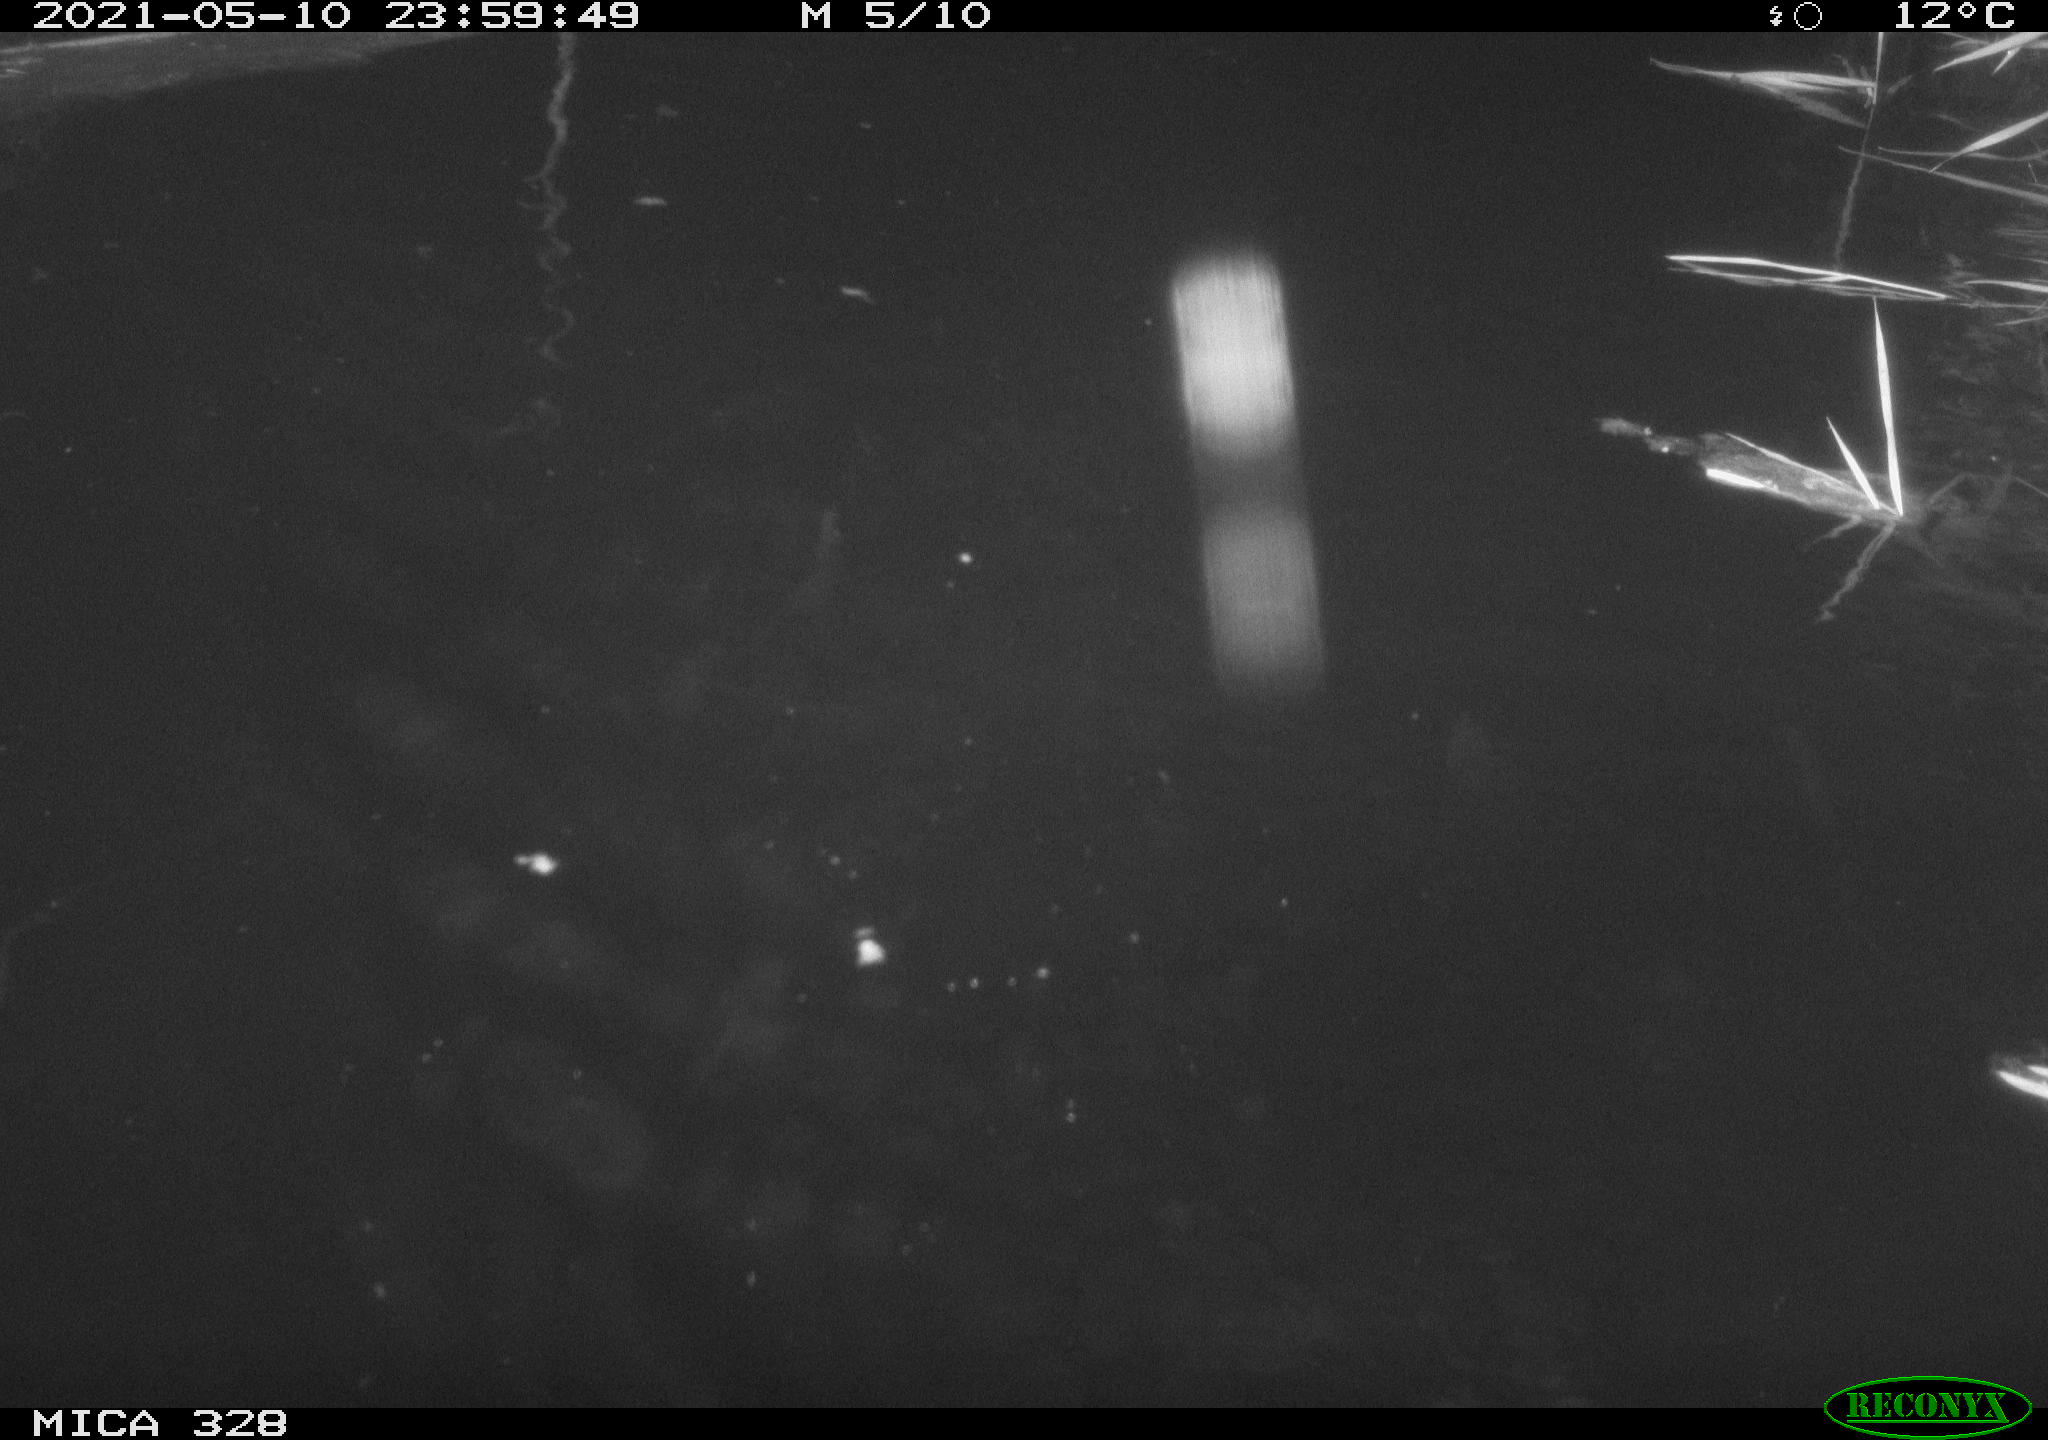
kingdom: Animalia
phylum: Chordata
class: Mammalia
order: Rodentia
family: Cricetidae
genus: Ondatra
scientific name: Ondatra zibethicus
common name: Muskrat
